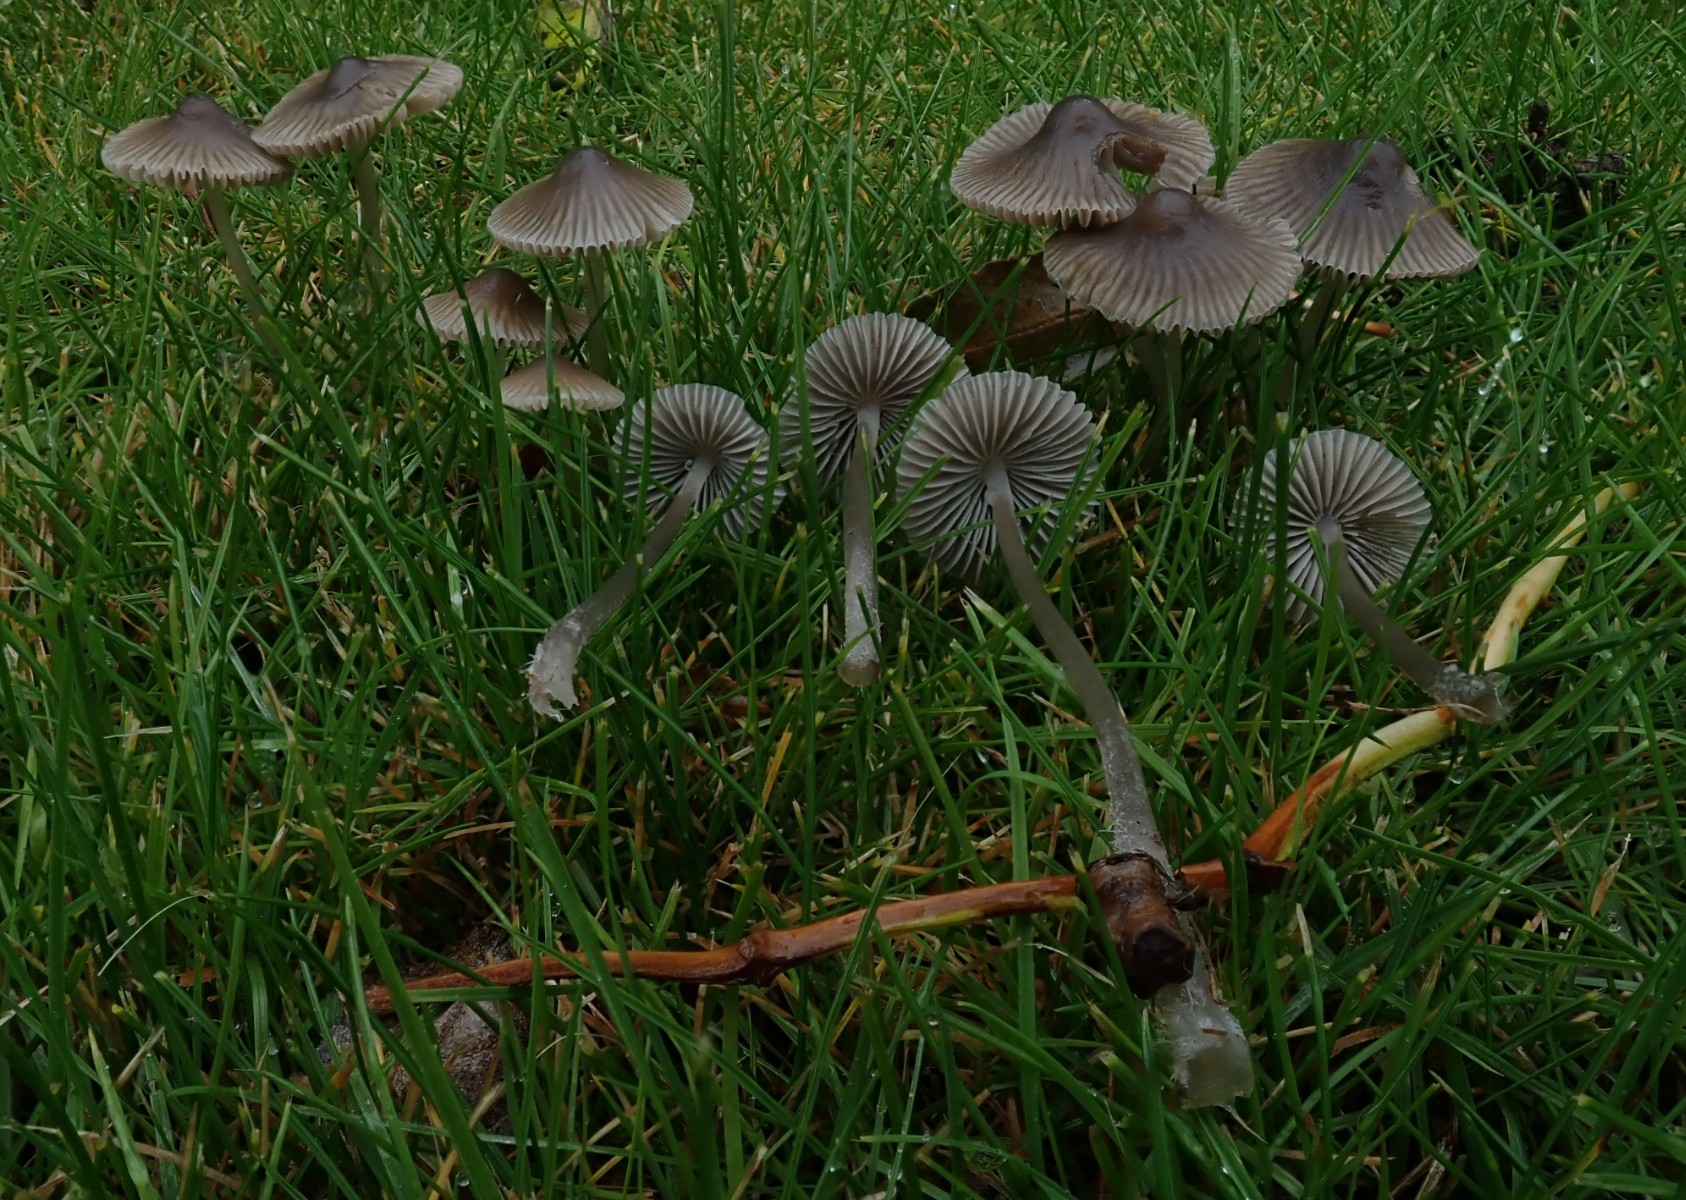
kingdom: Fungi
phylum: Basidiomycota
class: Agaricomycetes
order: Agaricales
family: Mycenaceae
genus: Mycena
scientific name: Mycena aetites
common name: plæne-huesvamp
